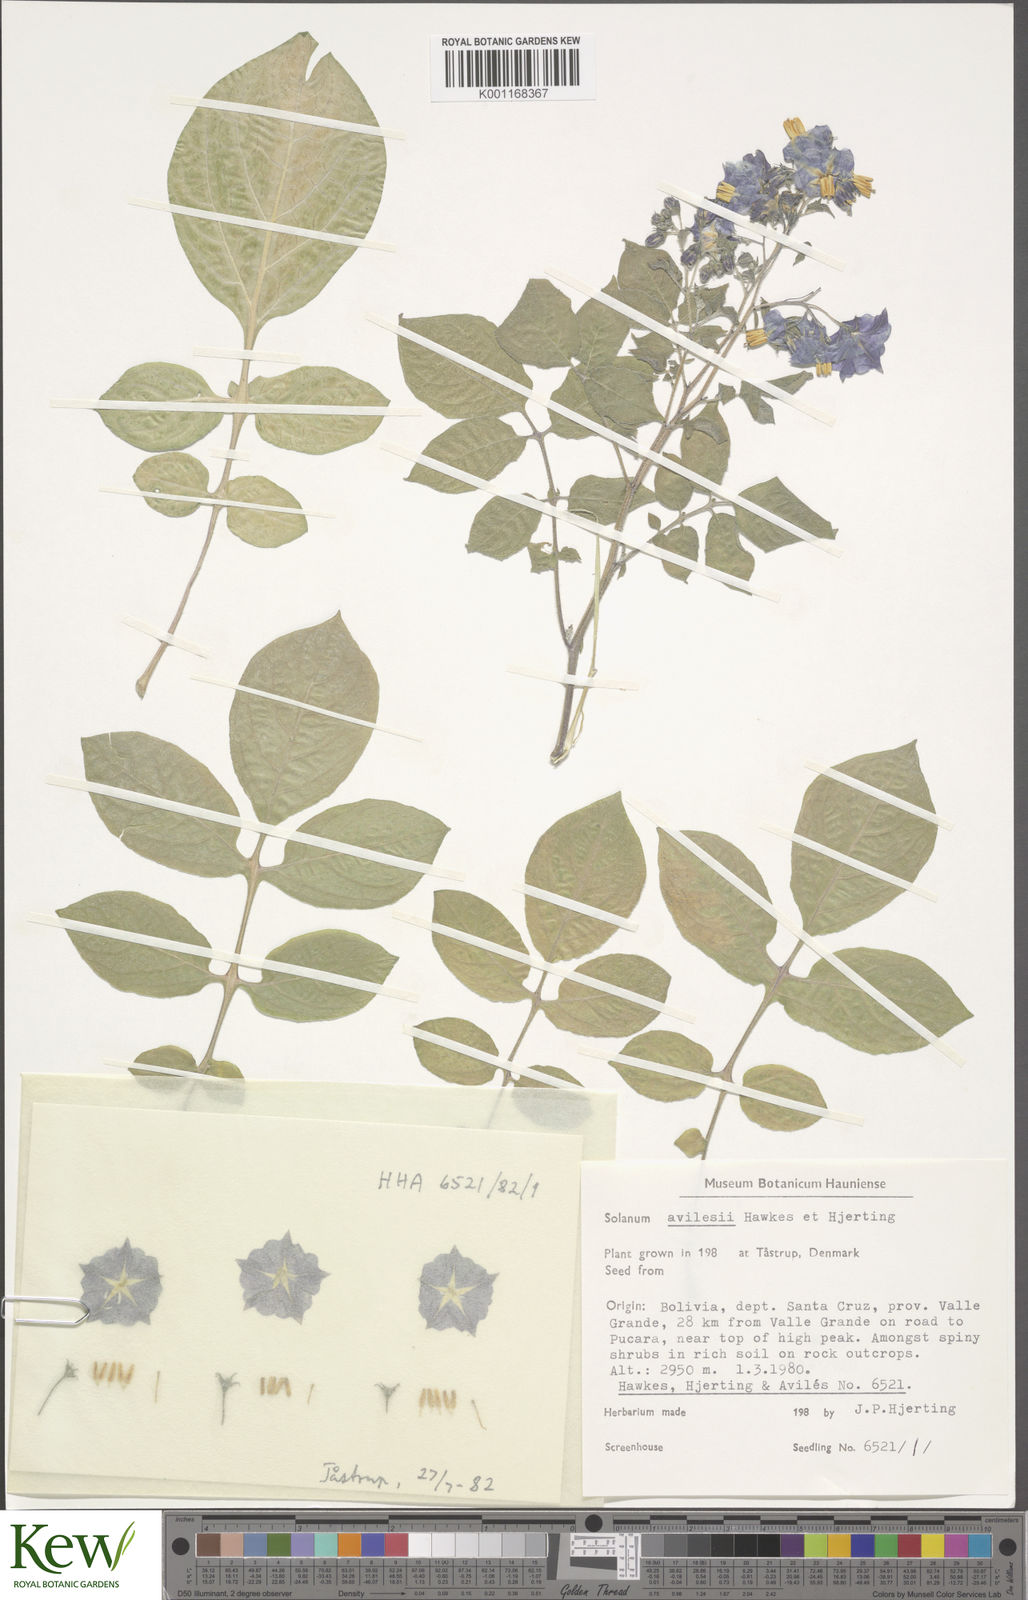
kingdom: Plantae
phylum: Tracheophyta
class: Magnoliopsida
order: Solanales
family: Solanaceae
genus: Solanum
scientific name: Solanum brevicaule
